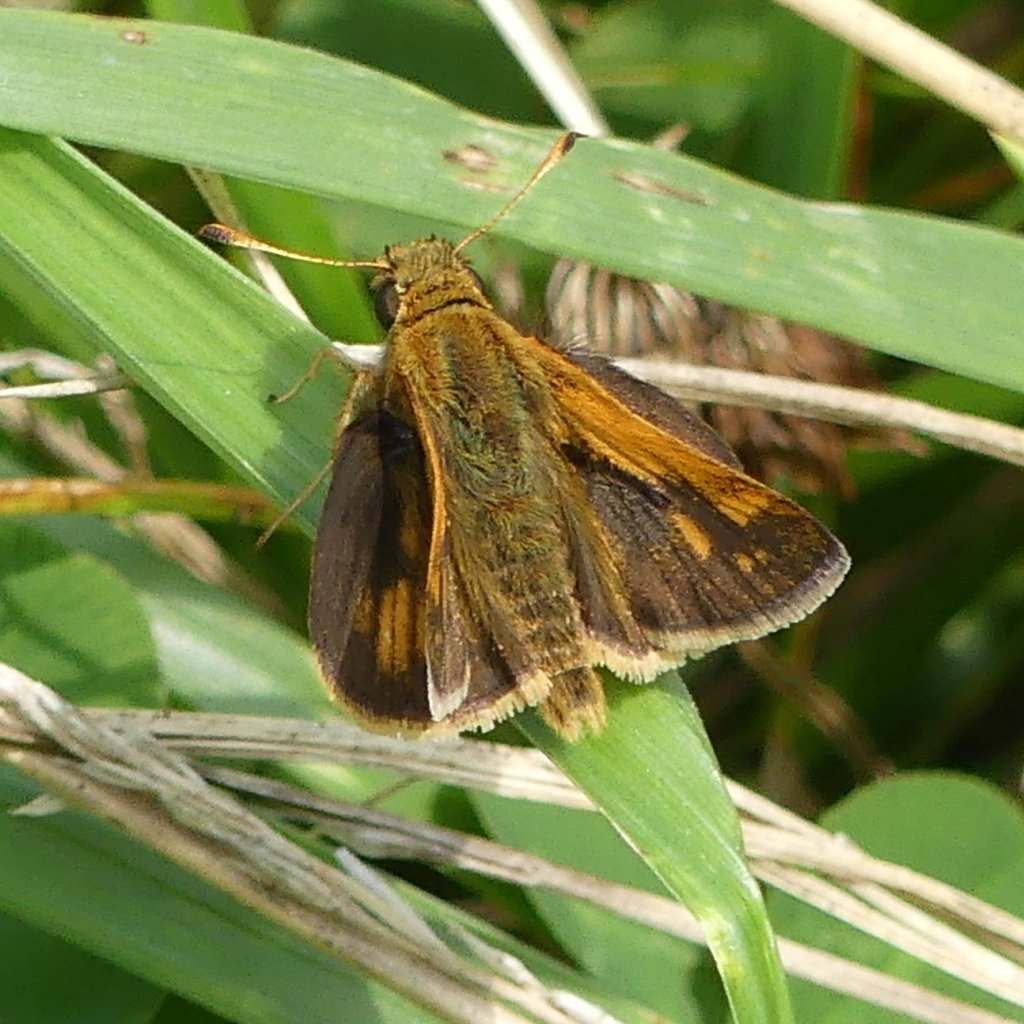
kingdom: Animalia
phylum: Arthropoda
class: Insecta
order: Lepidoptera
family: Hesperiidae
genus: Polites
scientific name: Polites coras
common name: Peck's Skipper
